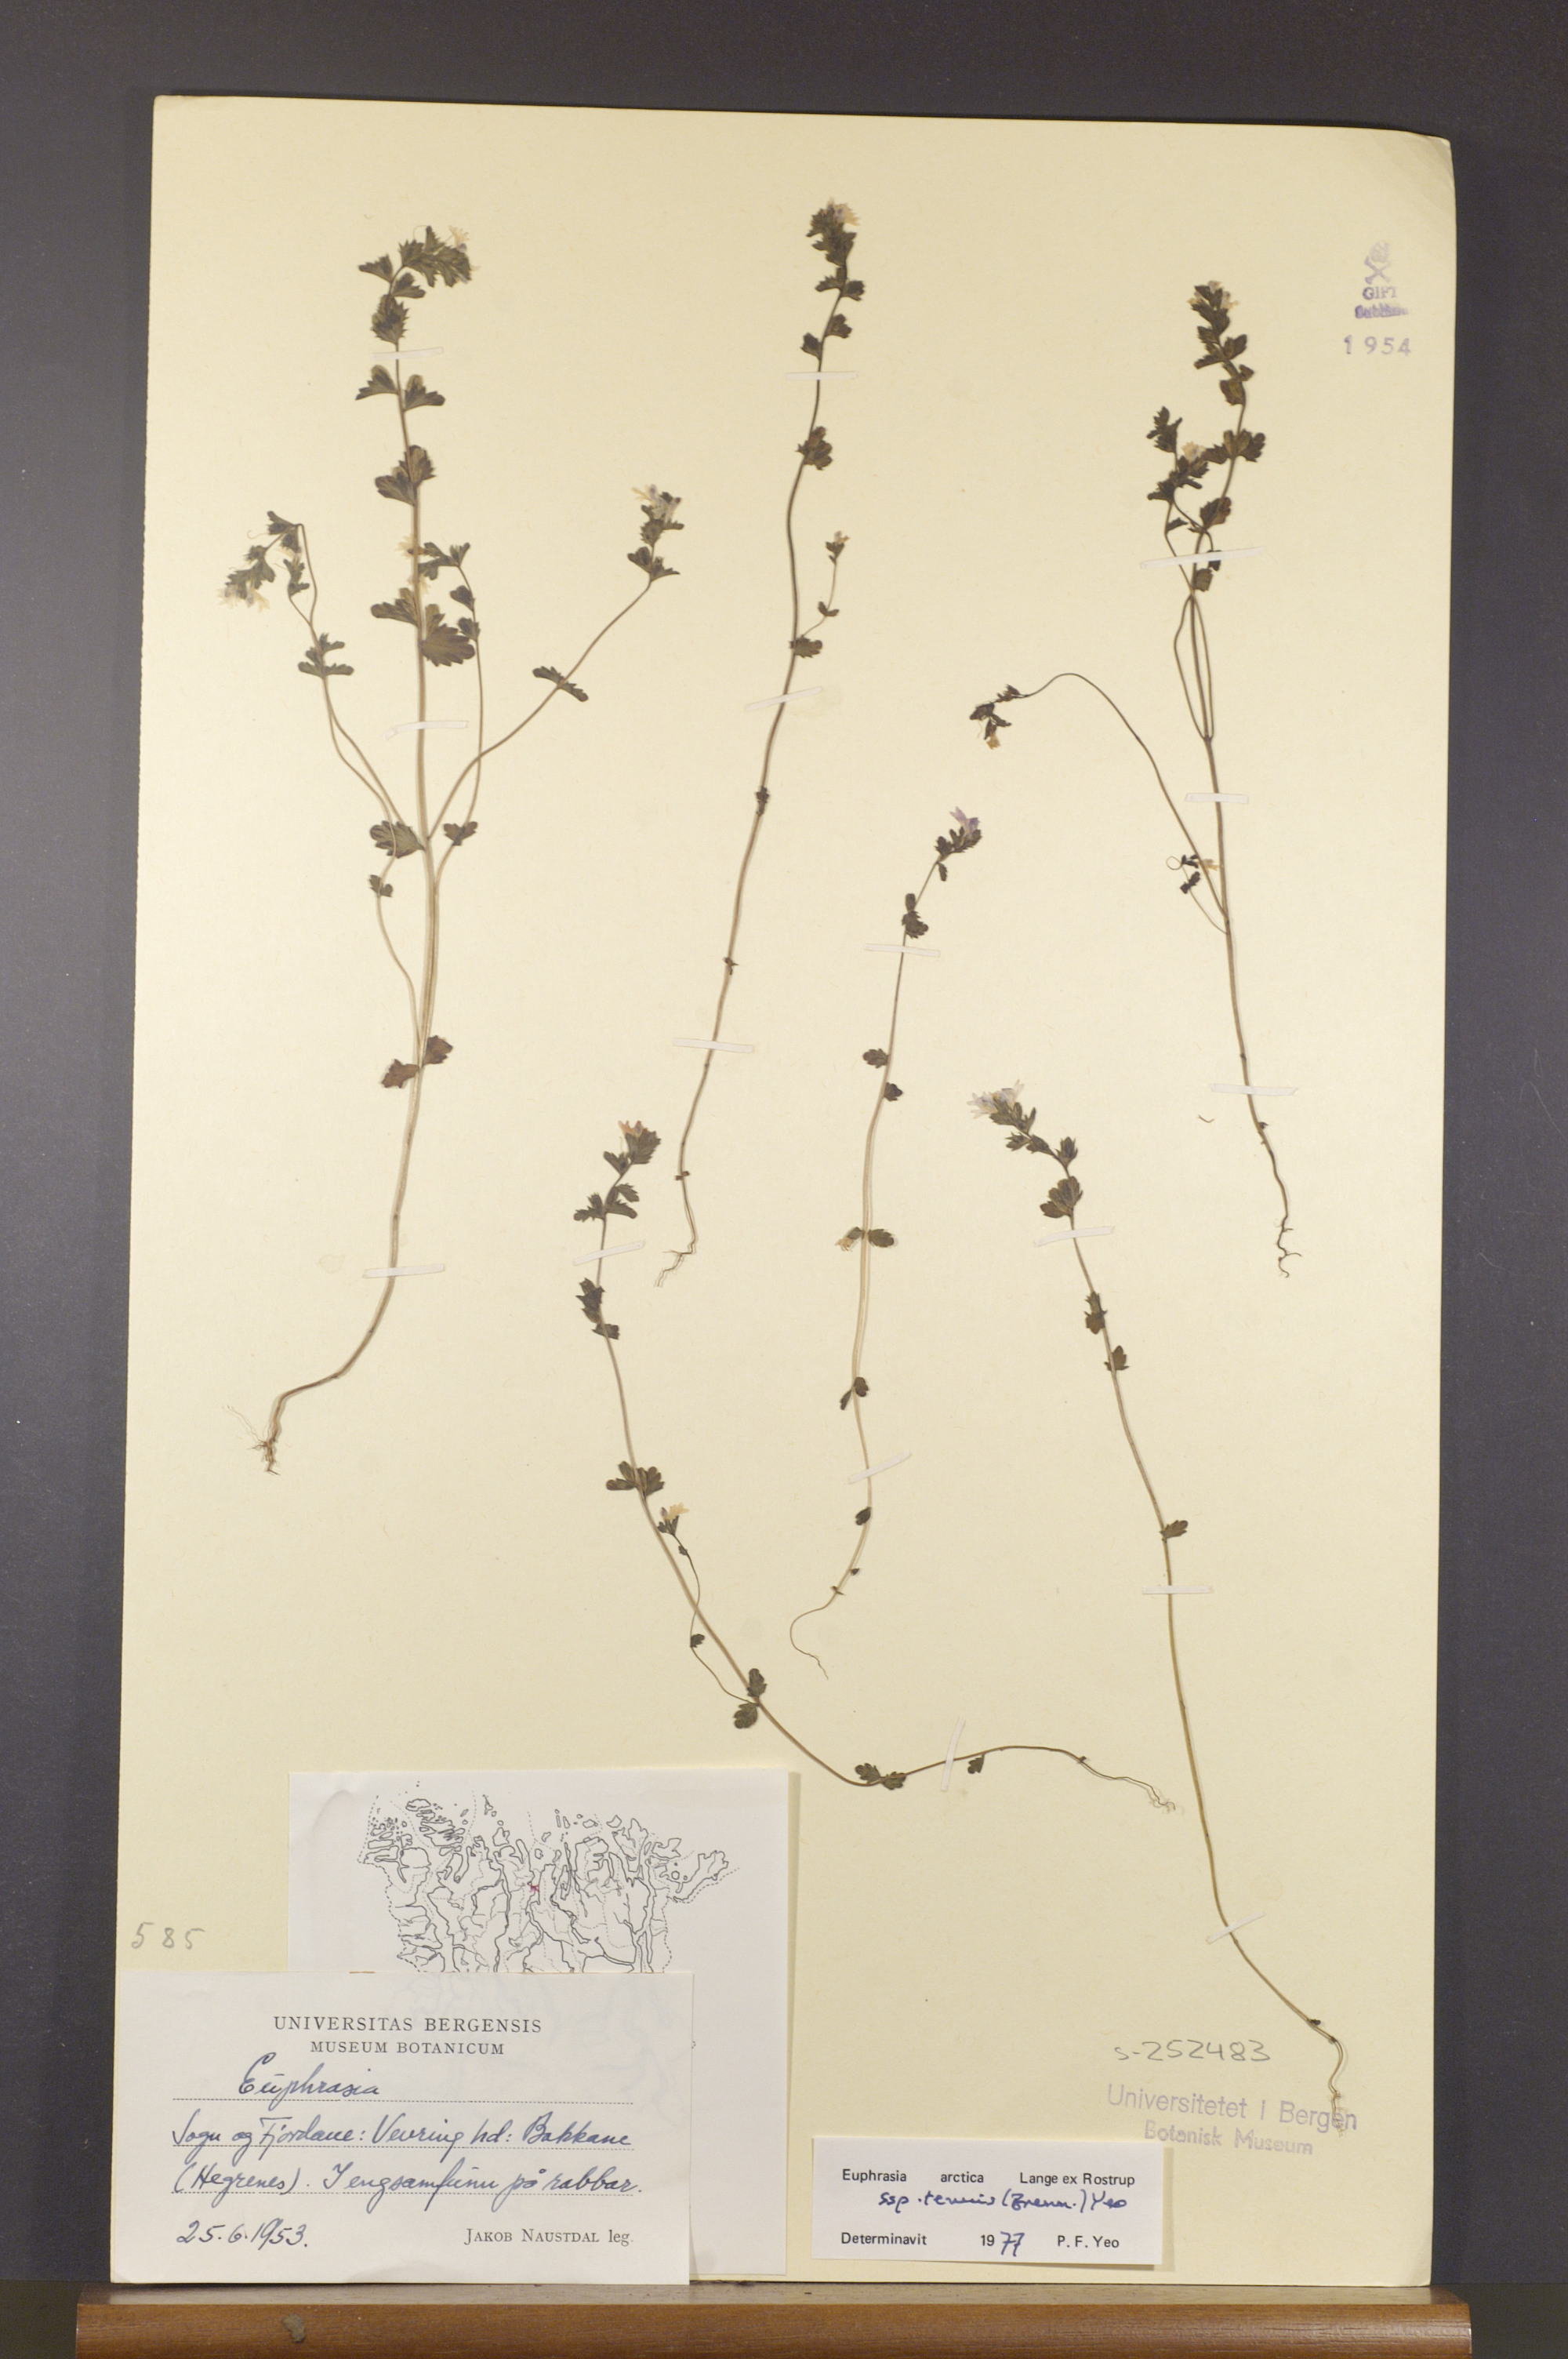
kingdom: Plantae
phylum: Tracheophyta
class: Magnoliopsida
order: Lamiales
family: Orobanchaceae
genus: Euphrasia
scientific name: Euphrasia vernalis
